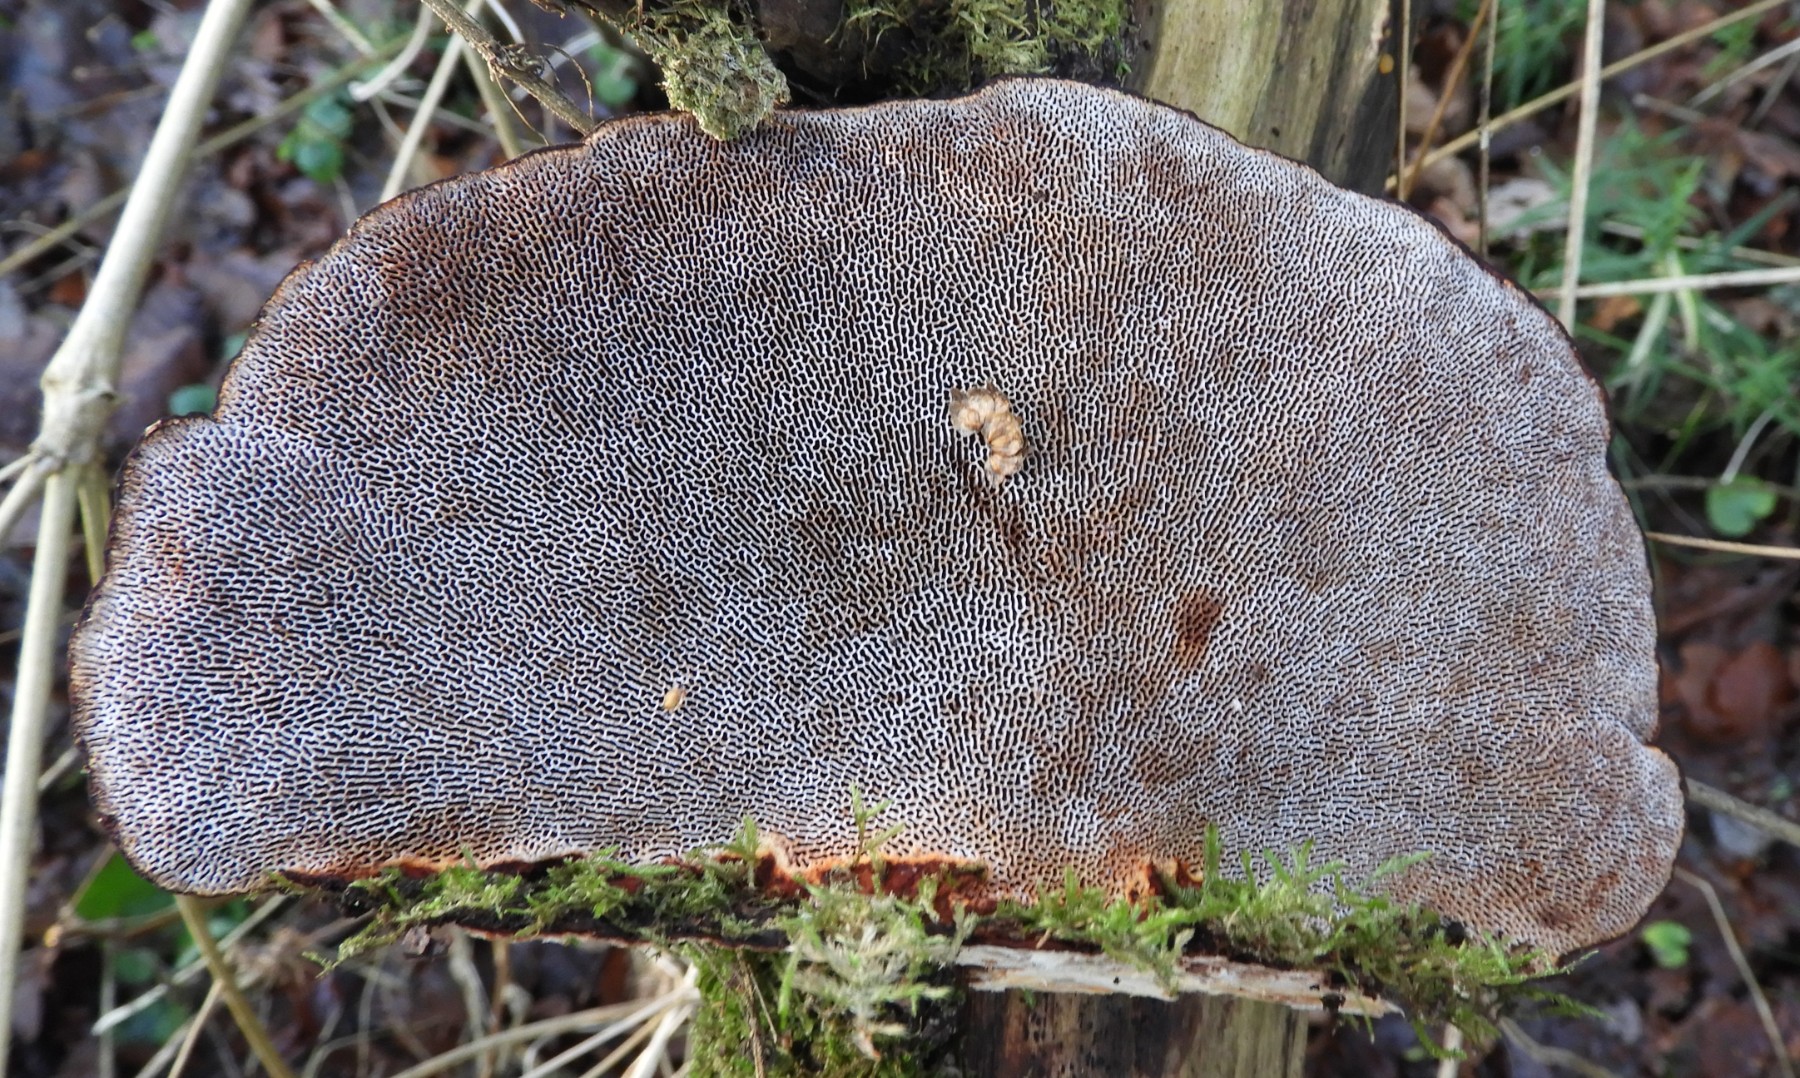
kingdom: Fungi
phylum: Basidiomycota
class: Agaricomycetes
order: Polyporales
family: Polyporaceae
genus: Daedaleopsis
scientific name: Daedaleopsis confragosa
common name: rødmende læderporesvamp
